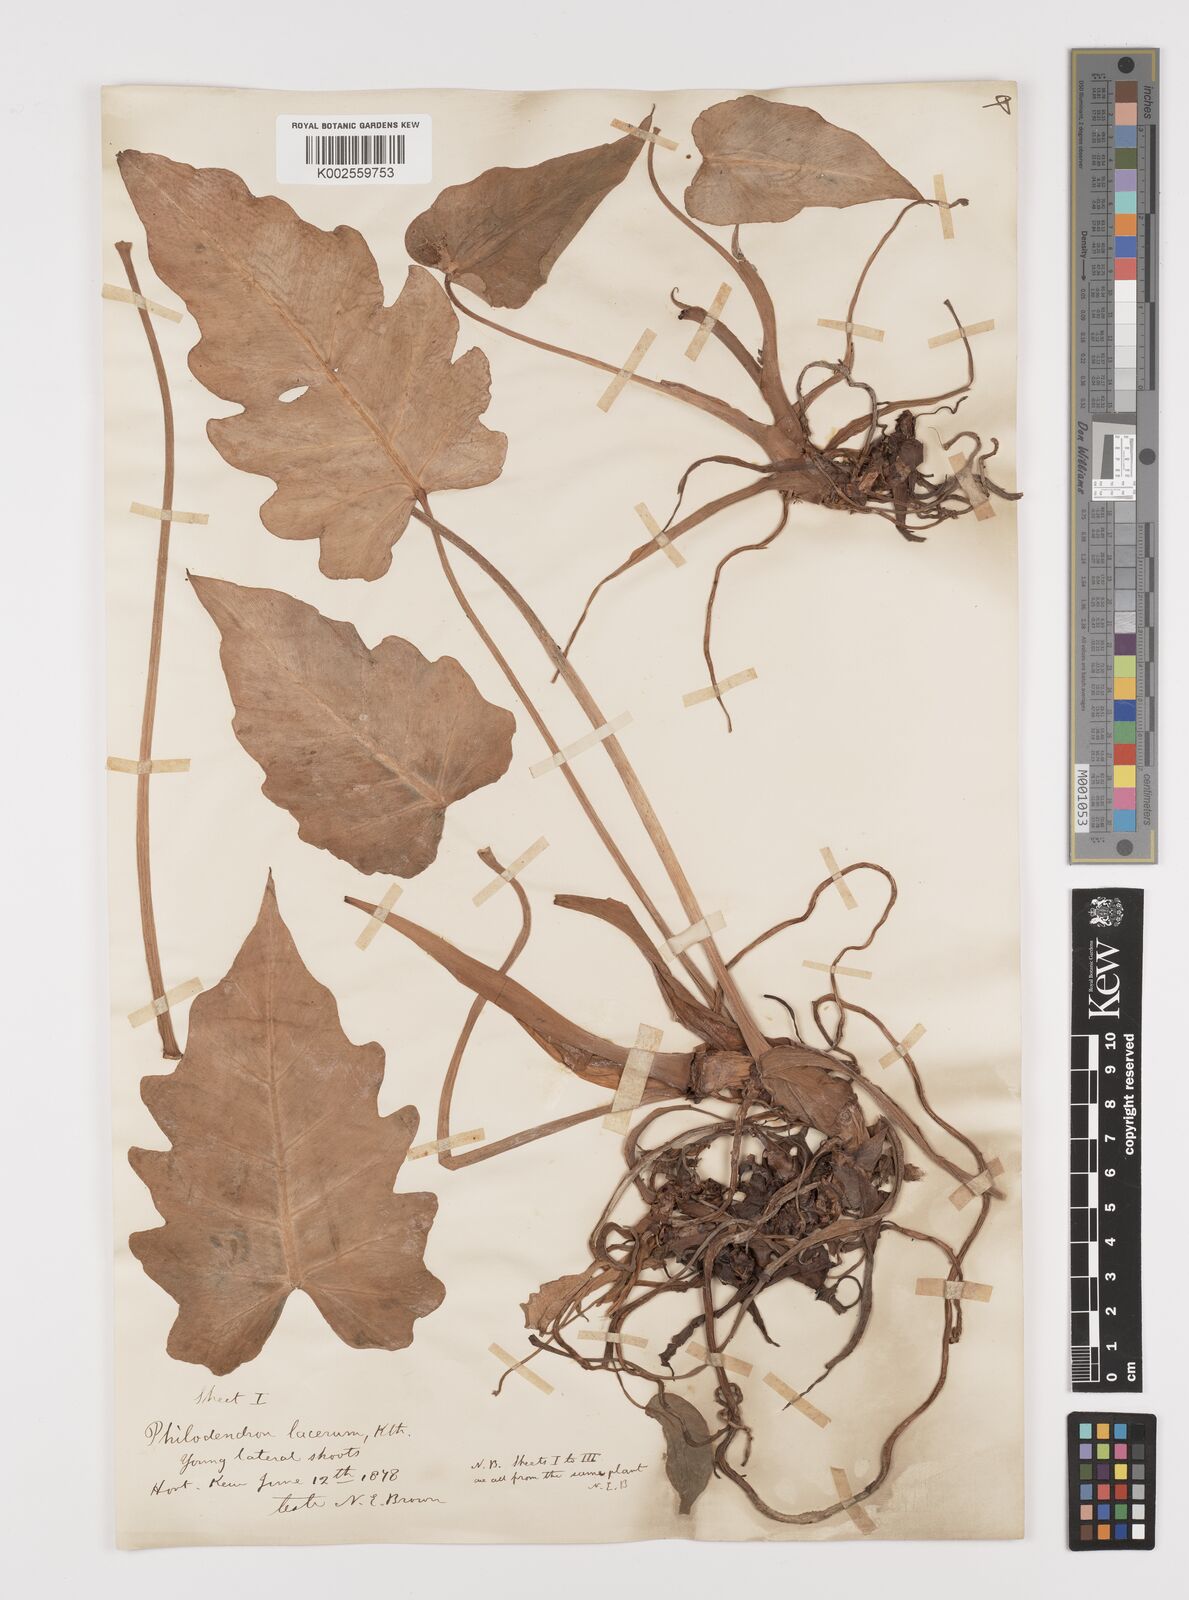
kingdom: Plantae
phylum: Tracheophyta
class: Liliopsida
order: Alismatales
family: Araceae
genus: Philodendron
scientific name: Philodendron lacerum
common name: Philodendron
